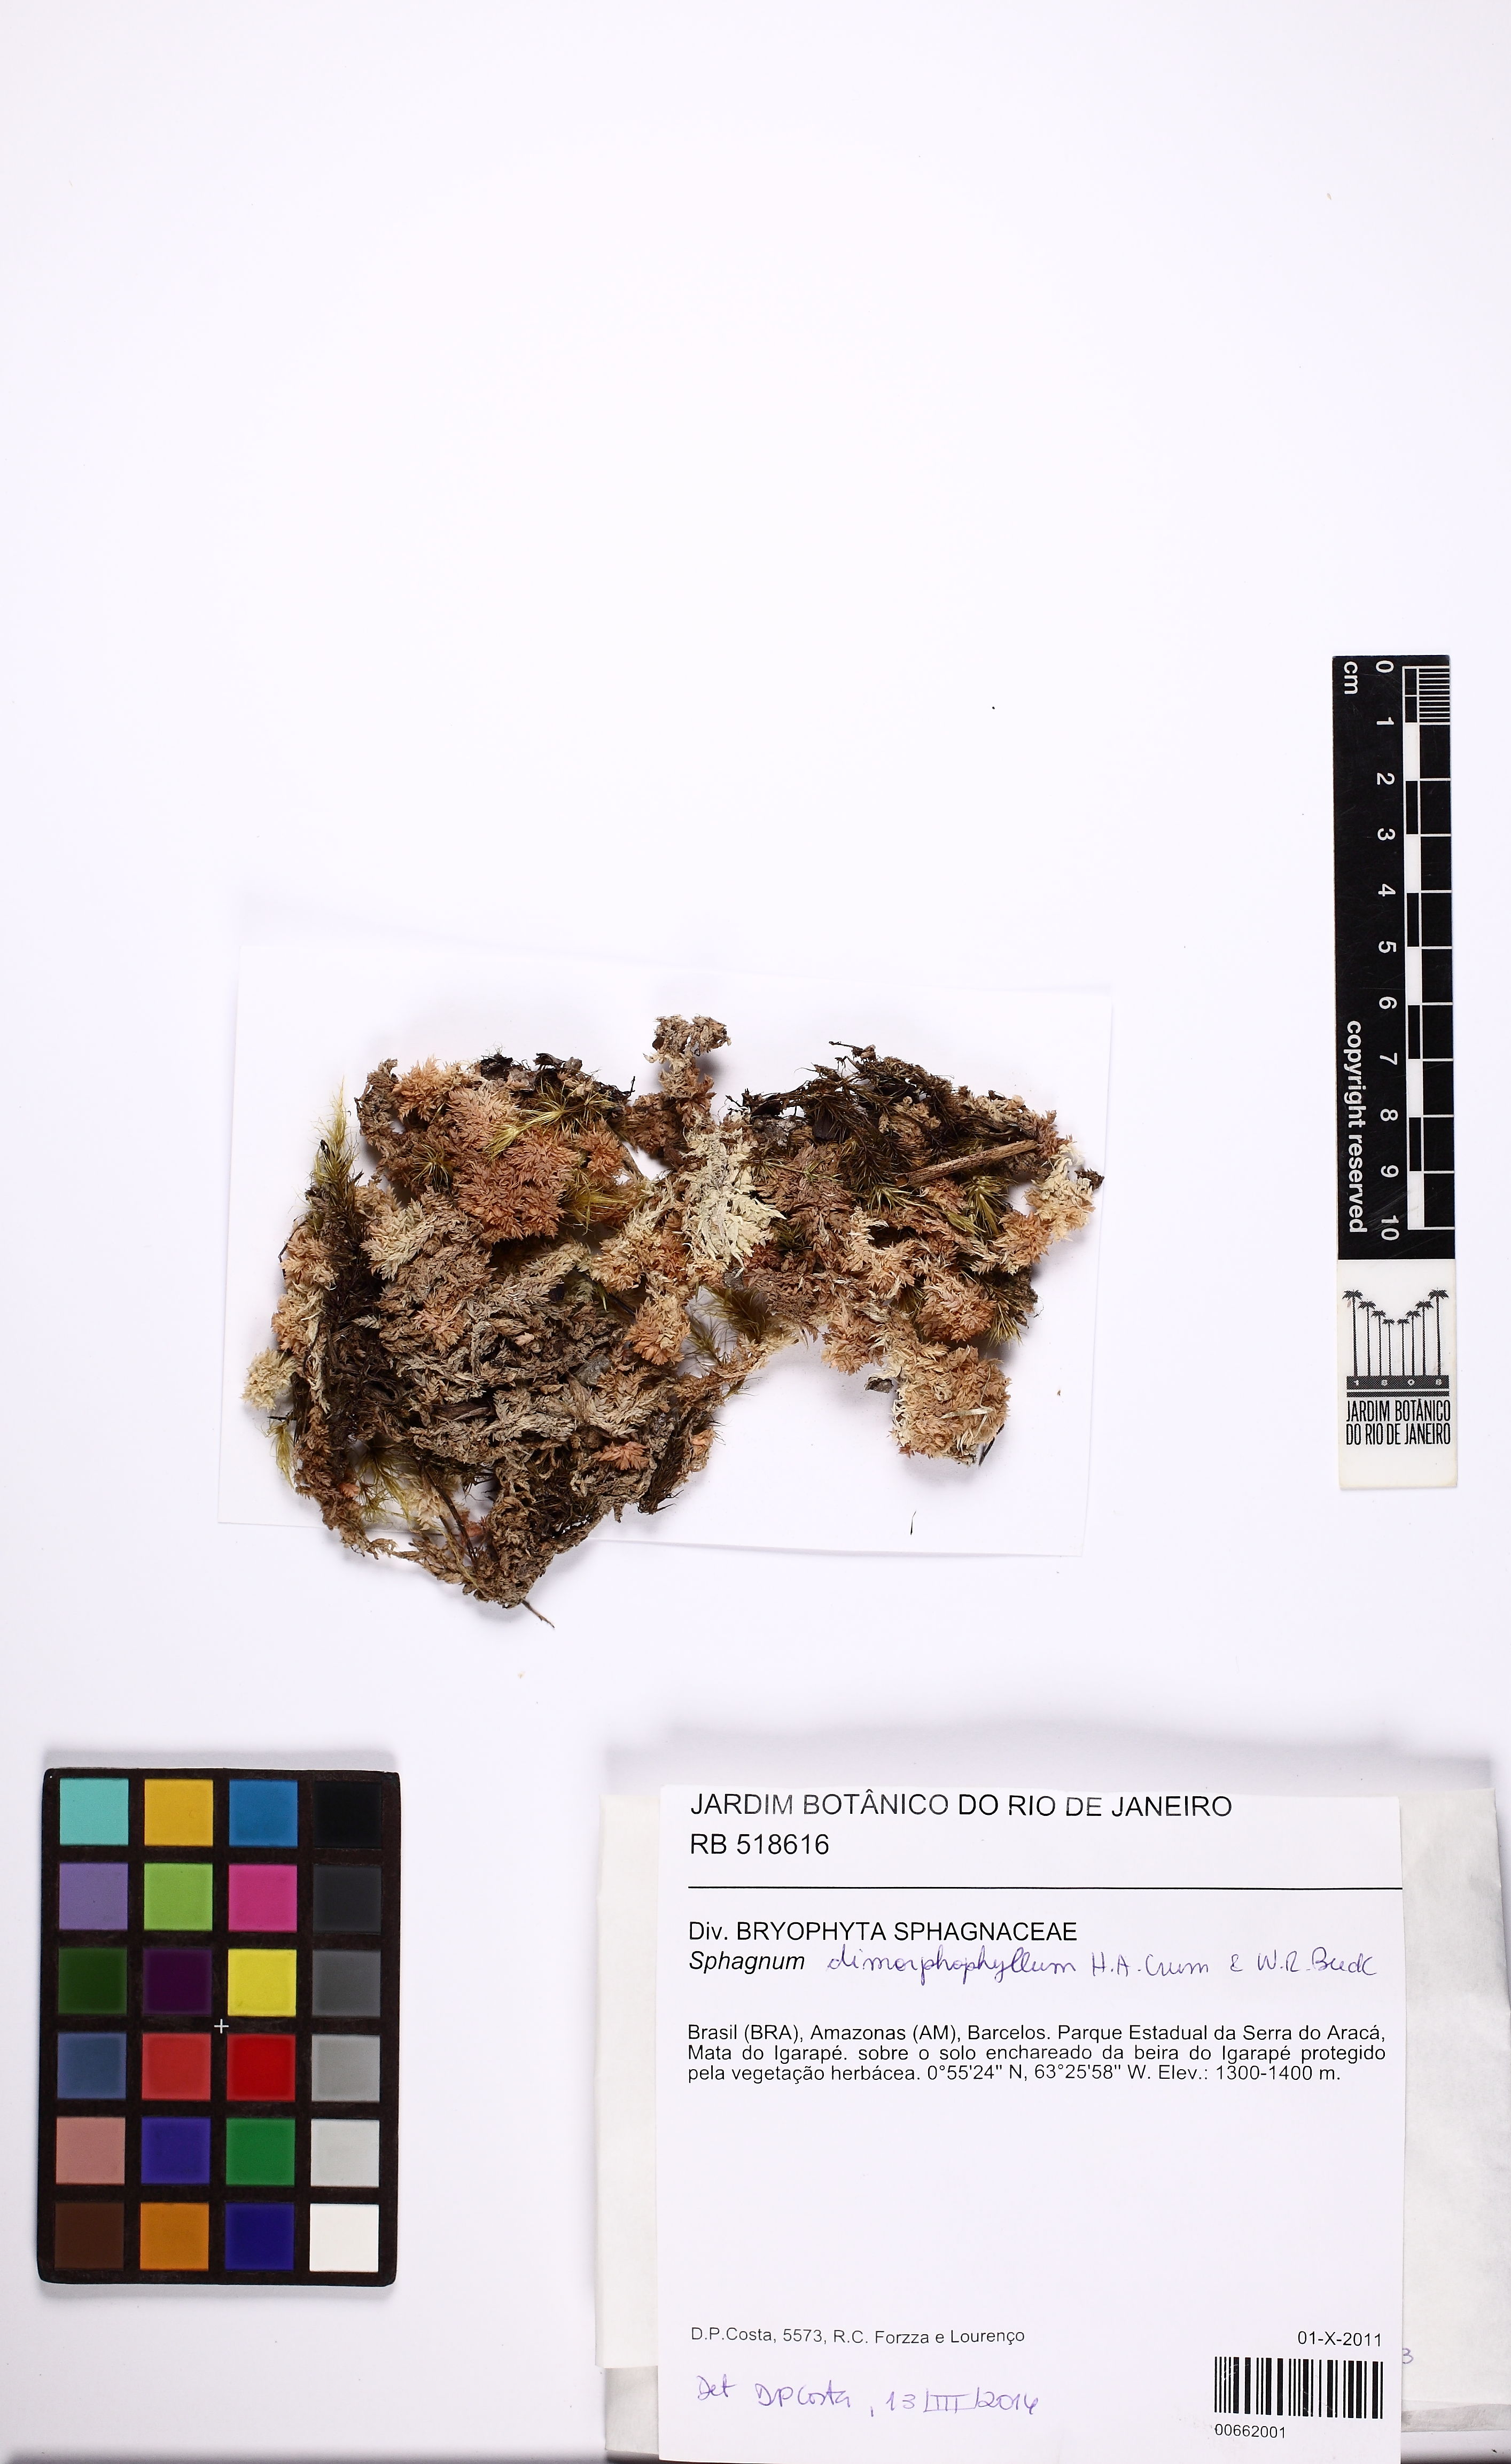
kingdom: Plantae
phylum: Bryophyta
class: Sphagnopsida
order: Sphagnales
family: Sphagnaceae
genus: Sphagnum
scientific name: Sphagnum dimorphophyllum
